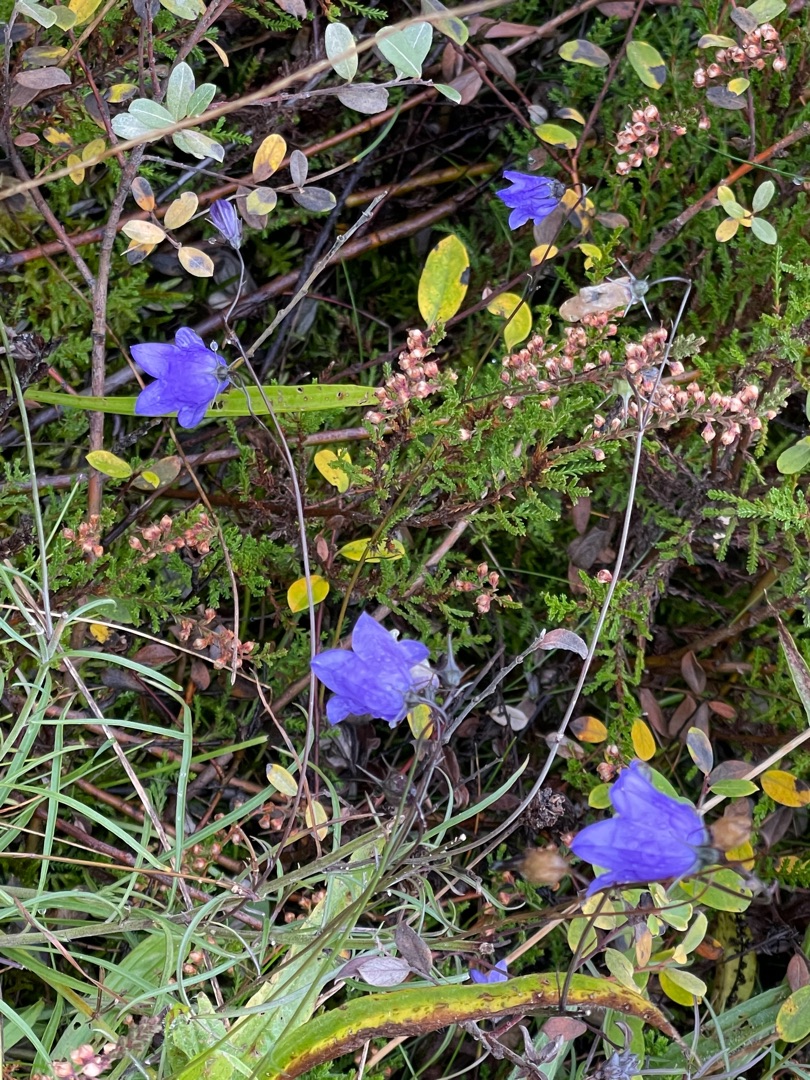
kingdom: Plantae
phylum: Tracheophyta
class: Magnoliopsida
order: Asterales
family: Campanulaceae
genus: Campanula
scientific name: Campanula rotundifolia
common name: Liden klokke
